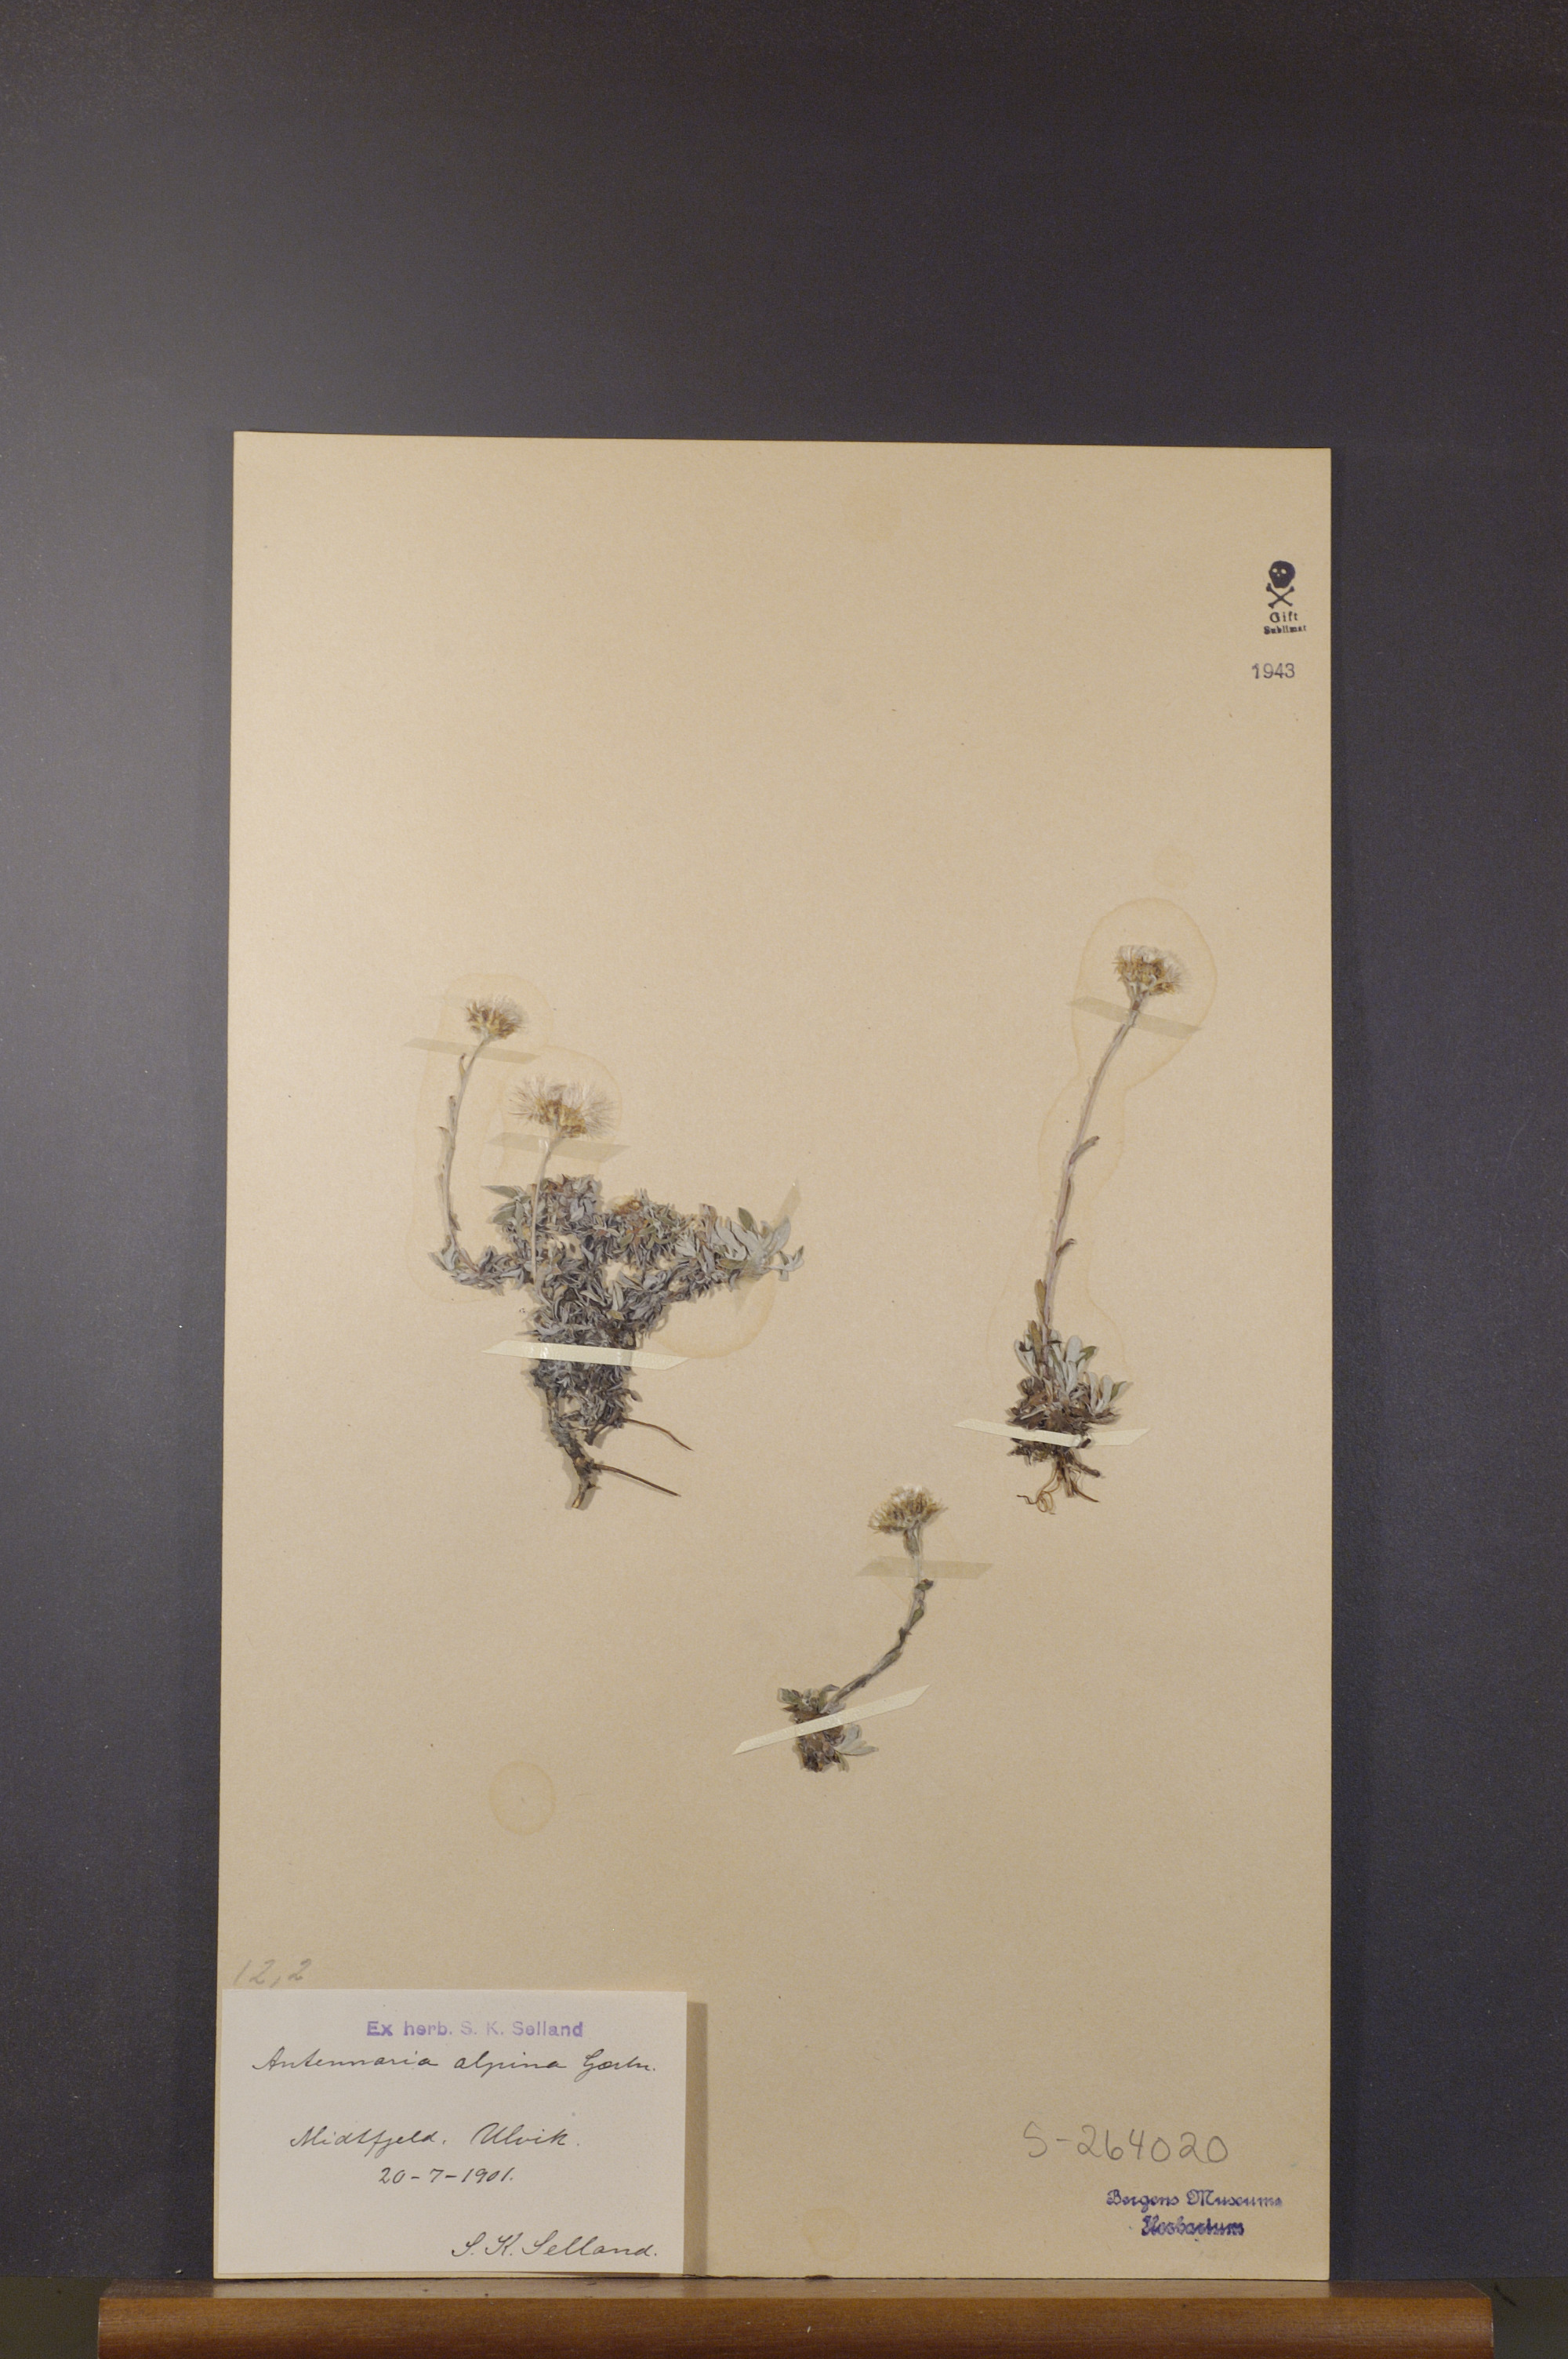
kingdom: Plantae
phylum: Tracheophyta
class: Magnoliopsida
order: Asterales
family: Asteraceae
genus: Antennaria
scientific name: Antennaria alpina
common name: Alpine pussytoes
